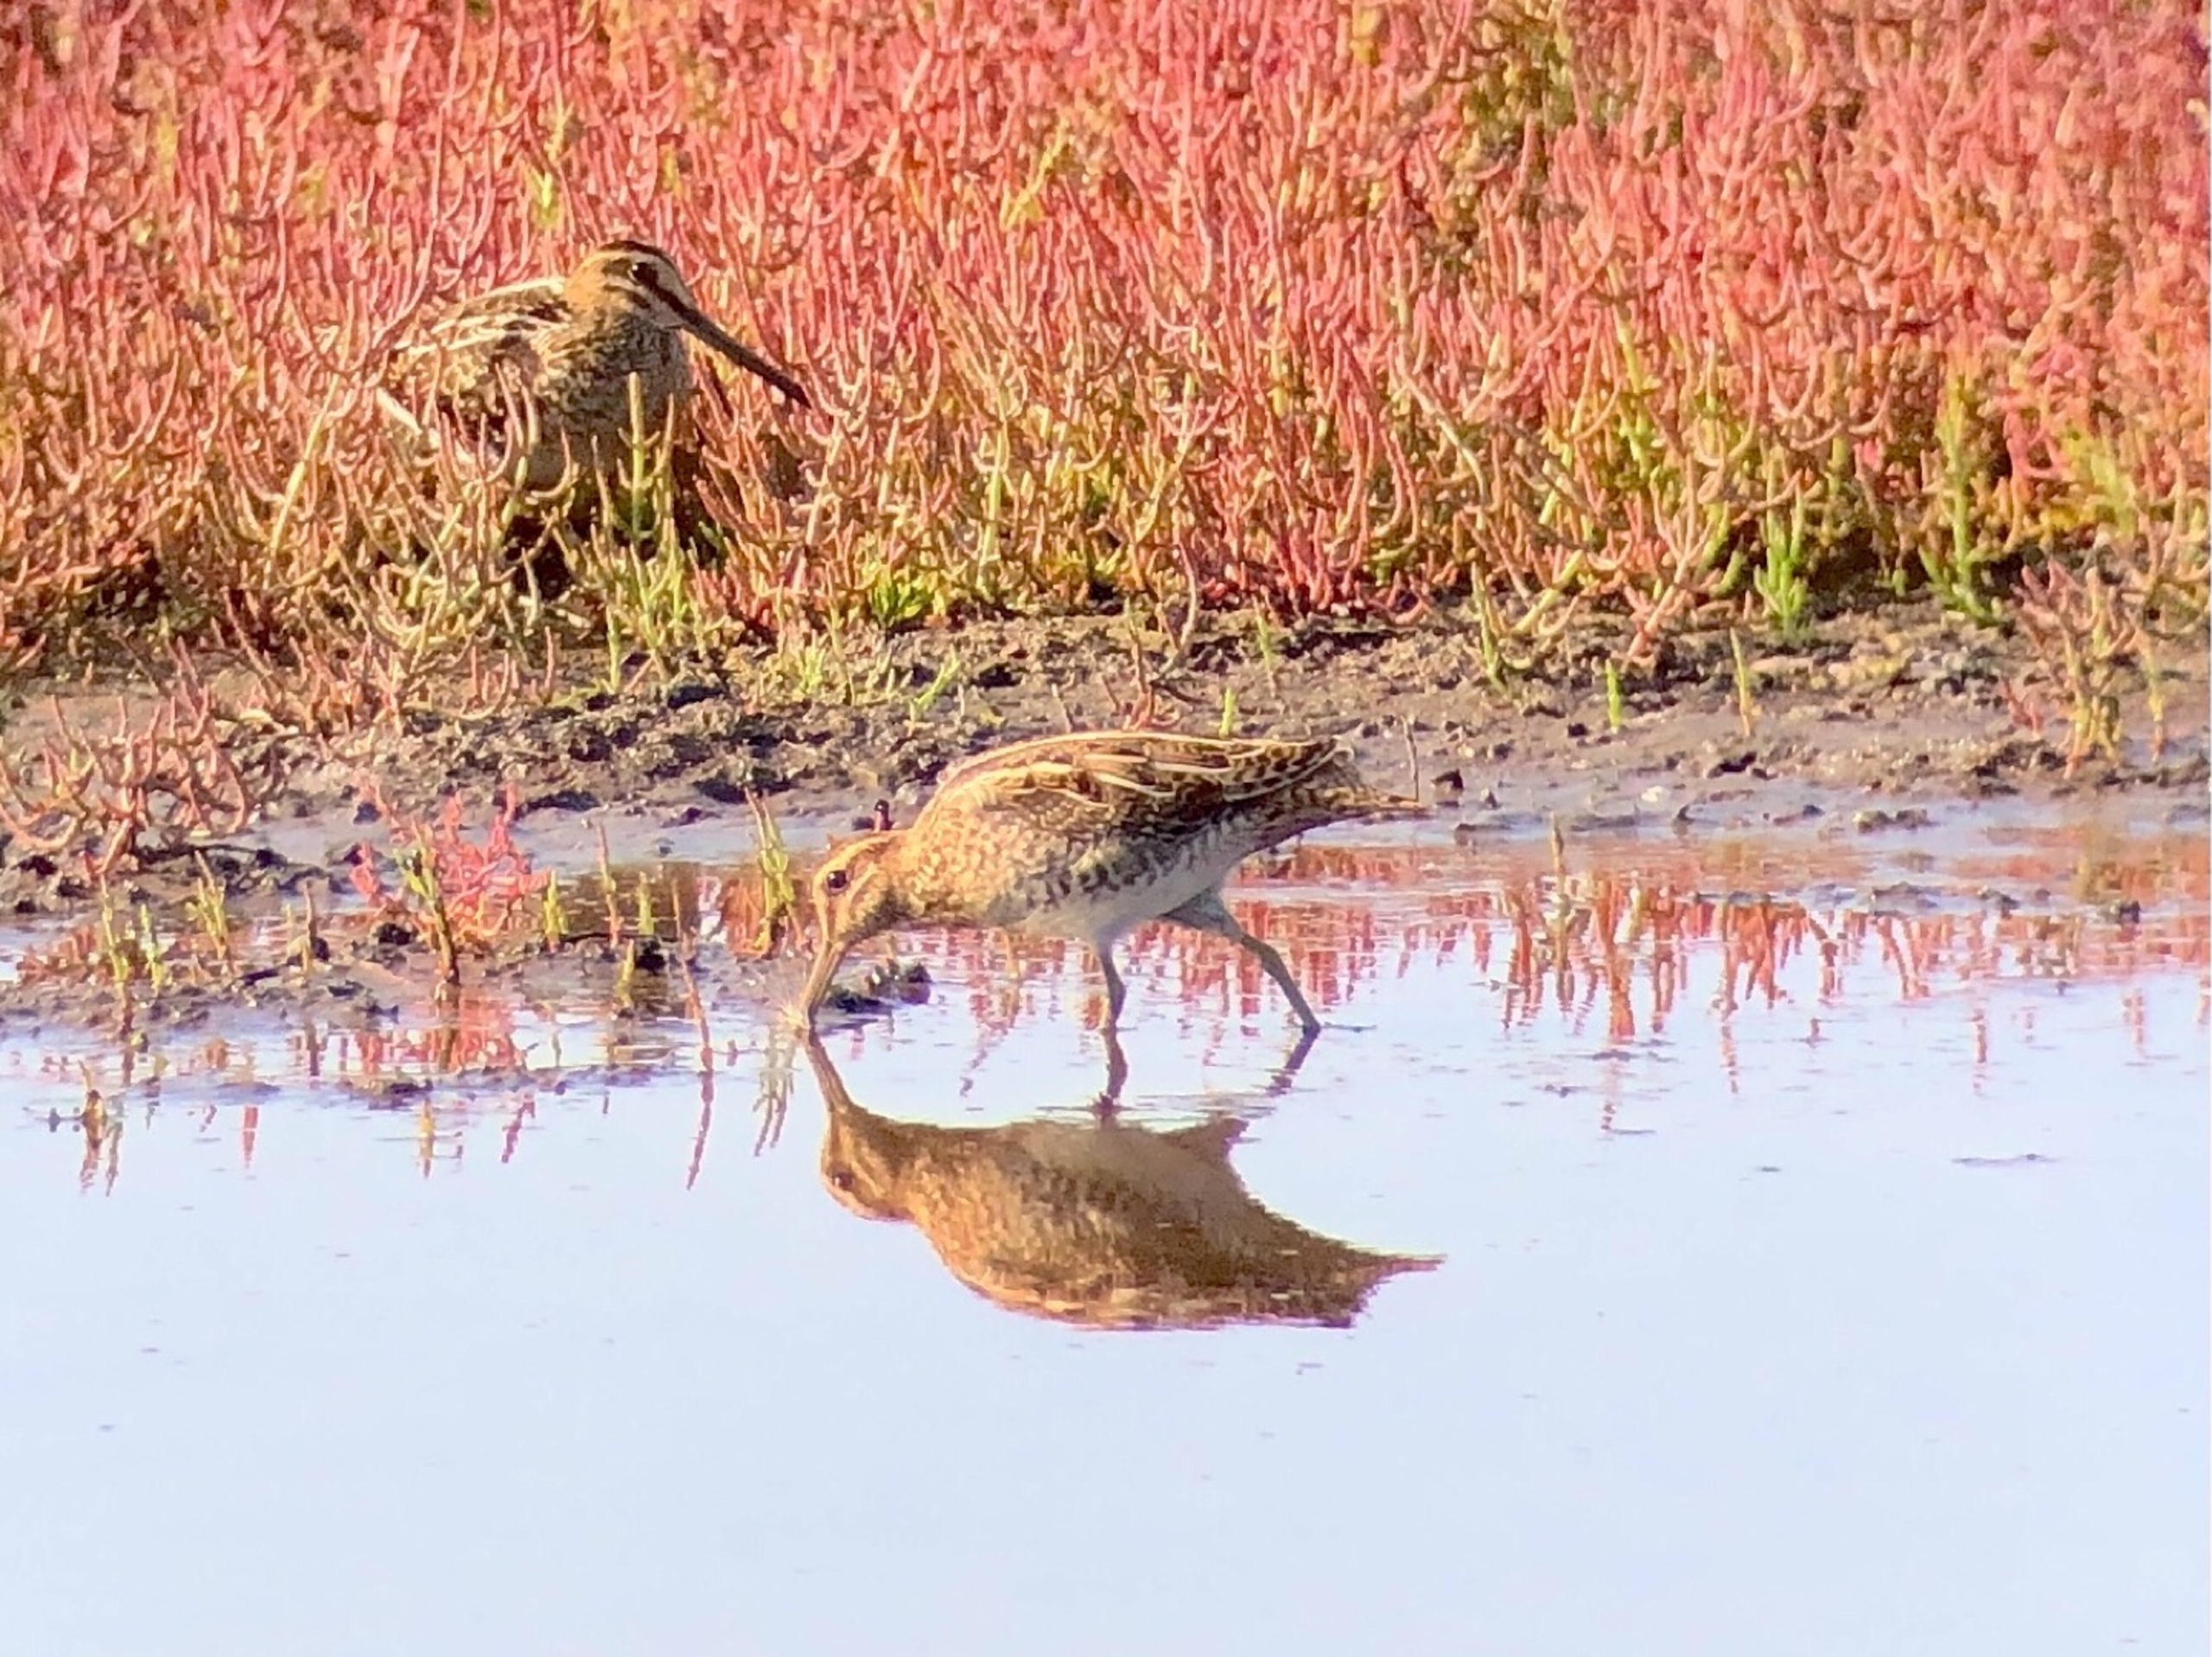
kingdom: Animalia
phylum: Chordata
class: Aves
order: Charadriiformes
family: Scolopacidae
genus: Gallinago
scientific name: Gallinago gallinago
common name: Dobbeltbekkasin
